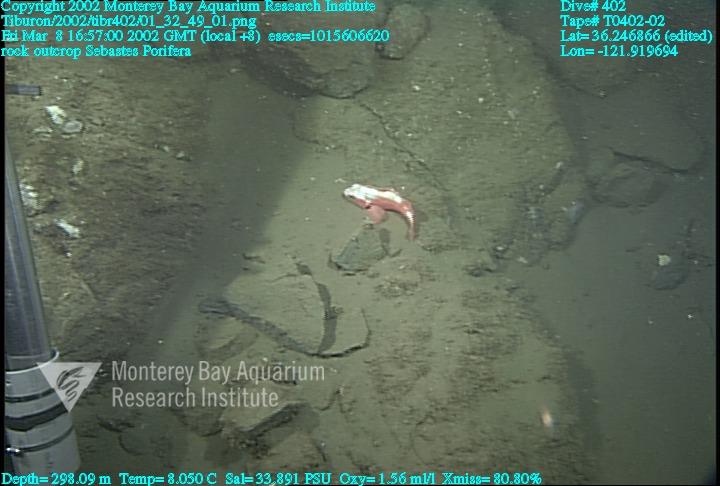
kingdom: Animalia
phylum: Porifera
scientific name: Porifera
